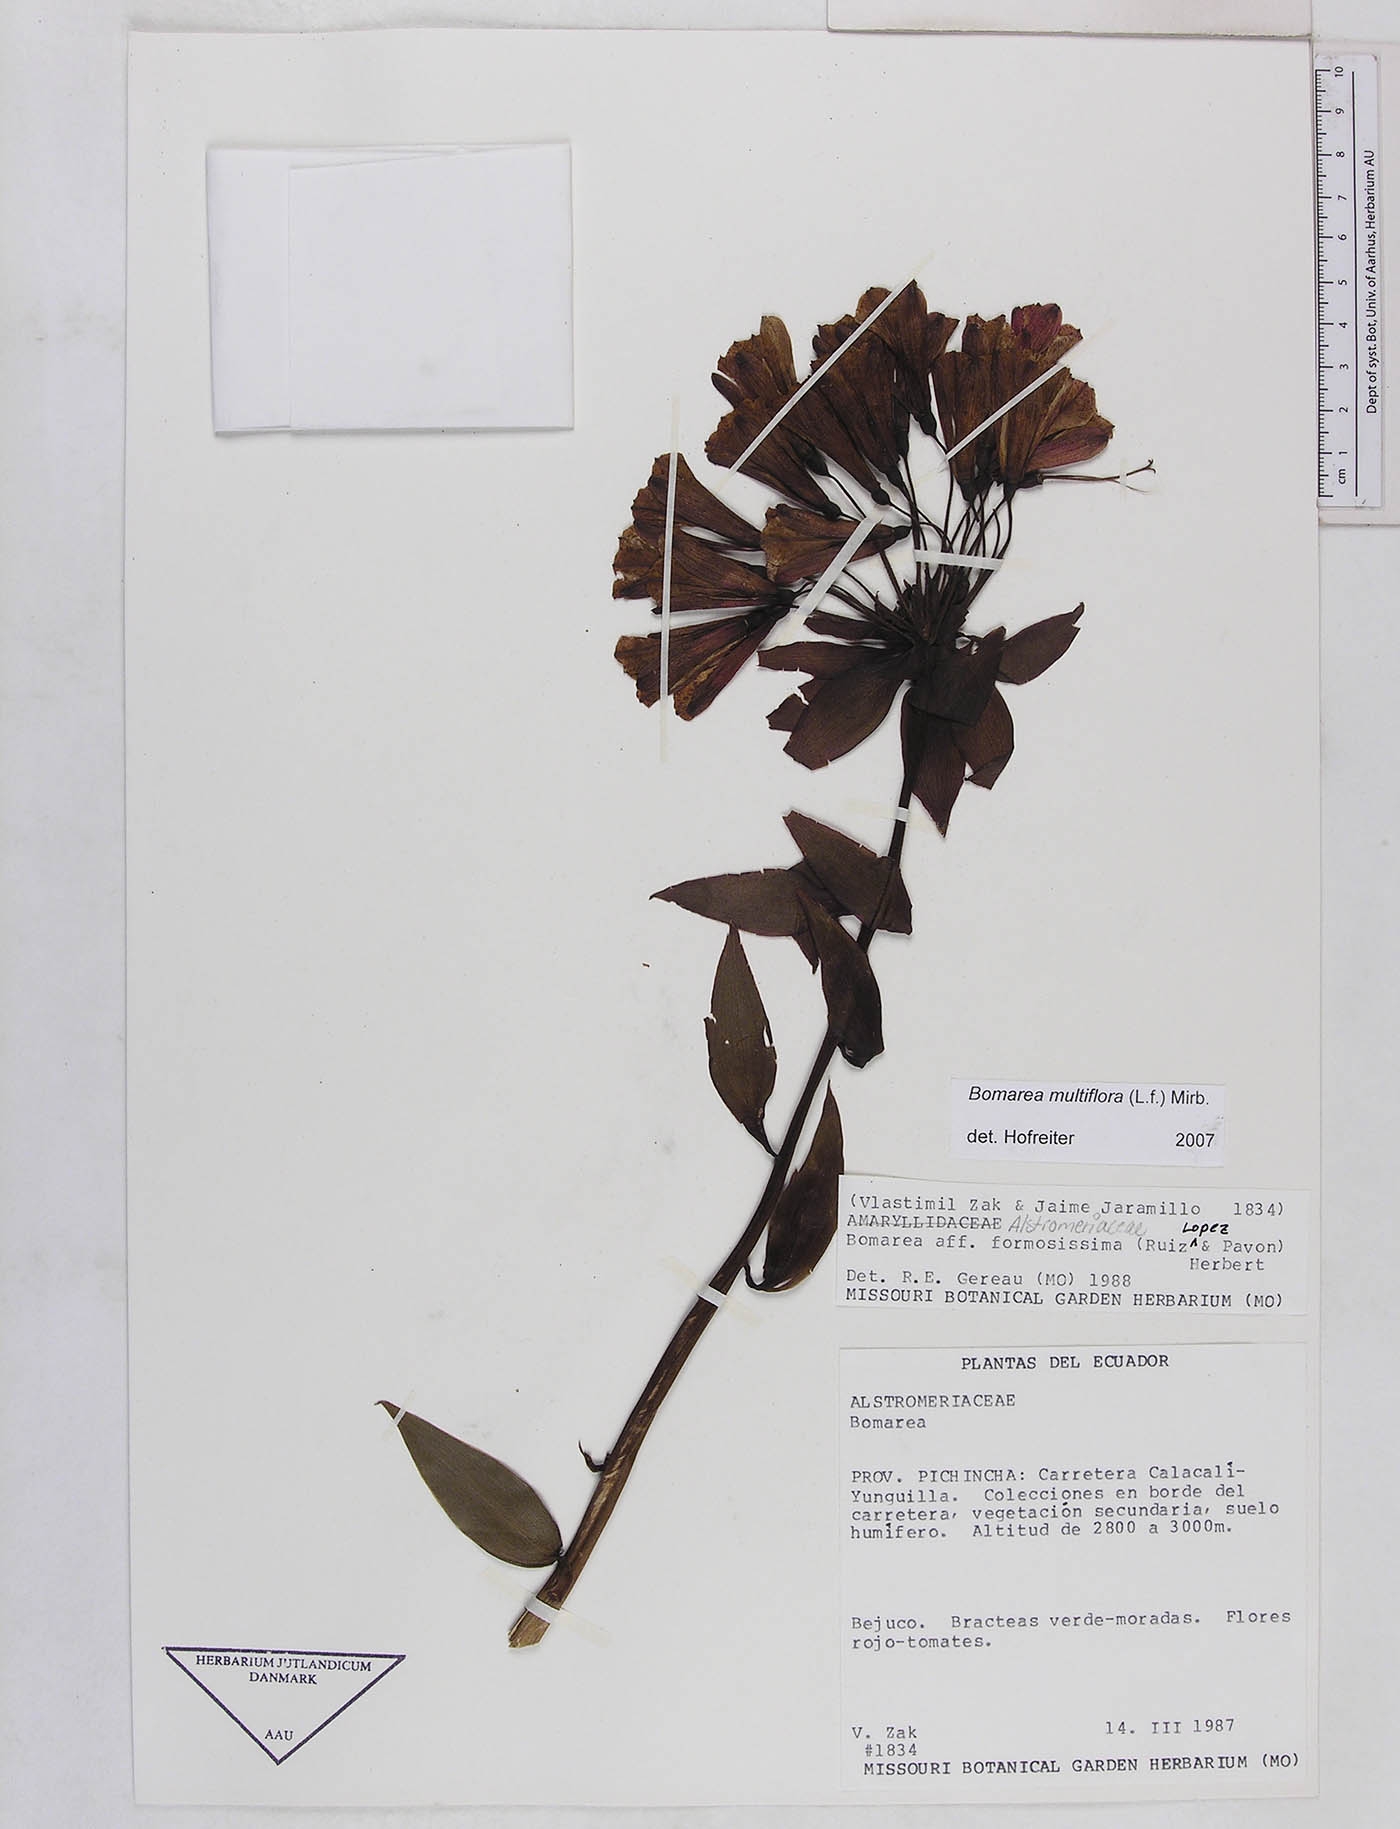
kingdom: Plantae
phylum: Tracheophyta
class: Liliopsida
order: Liliales
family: Alstroemeriaceae
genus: Bomarea
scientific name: Bomarea multiflora
